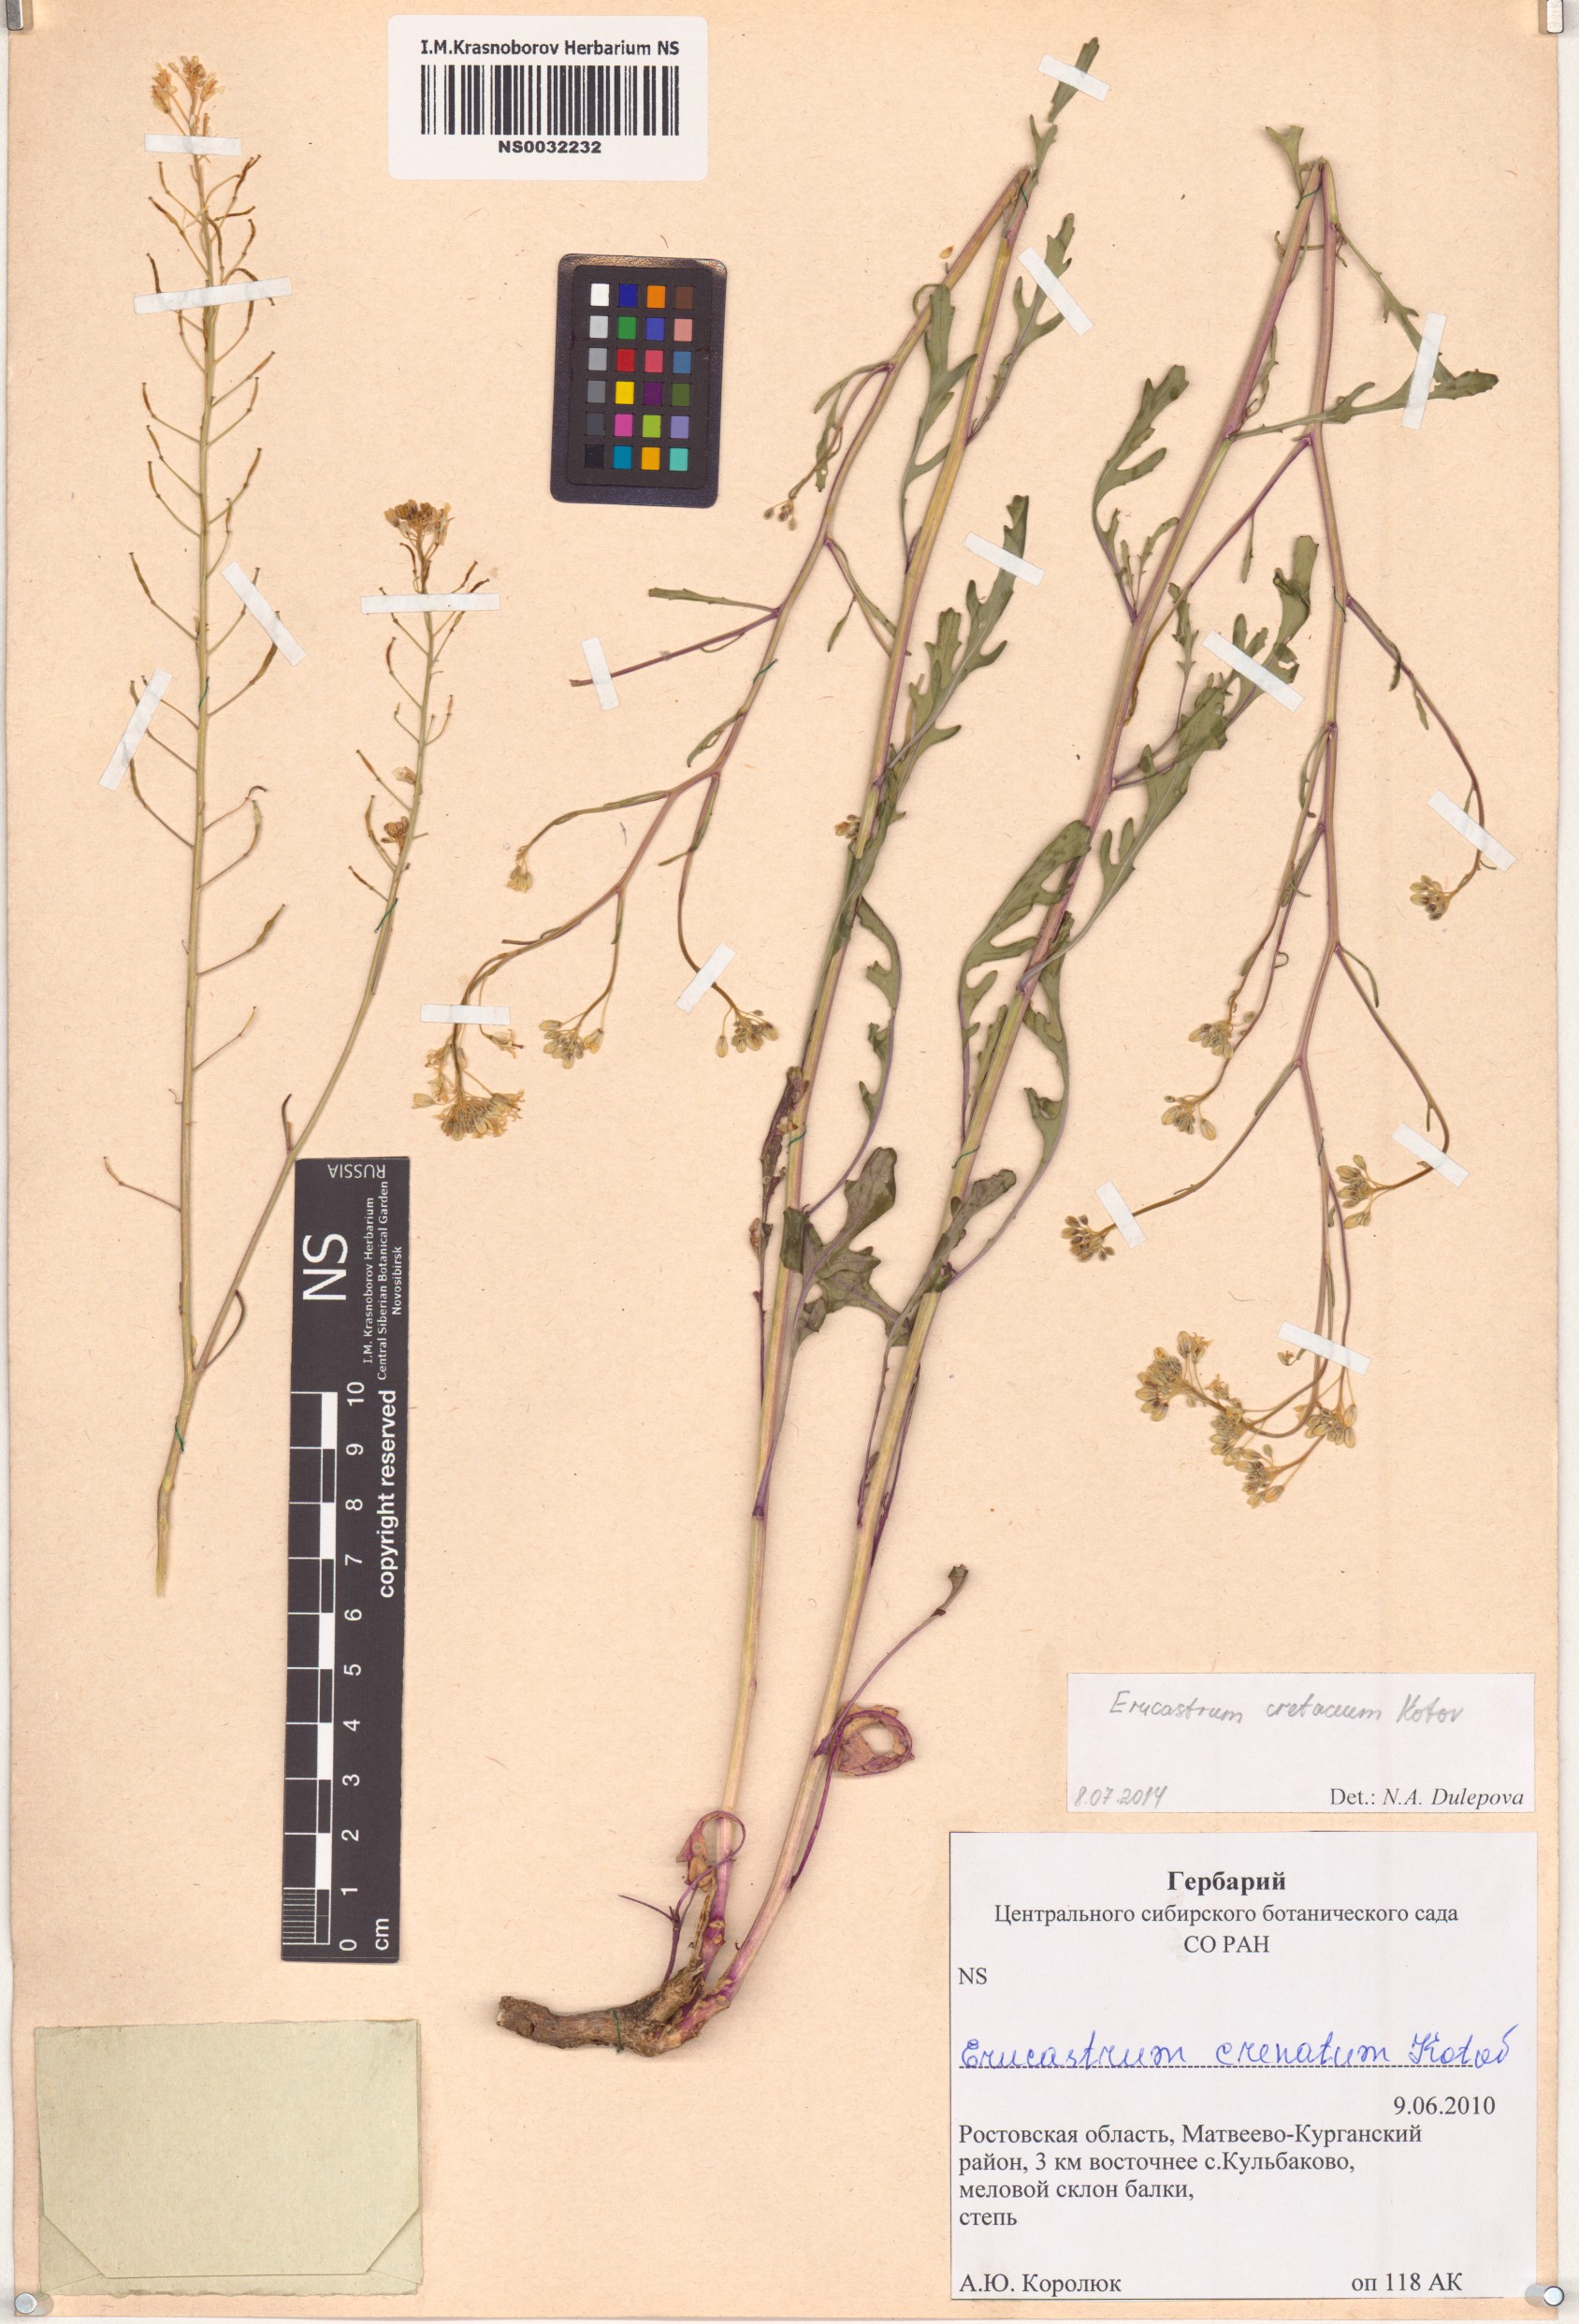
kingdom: Plantae
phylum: Tracheophyta
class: Magnoliopsida
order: Brassicales
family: Brassicaceae
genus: Guenthera
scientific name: Guenthera cretacea
